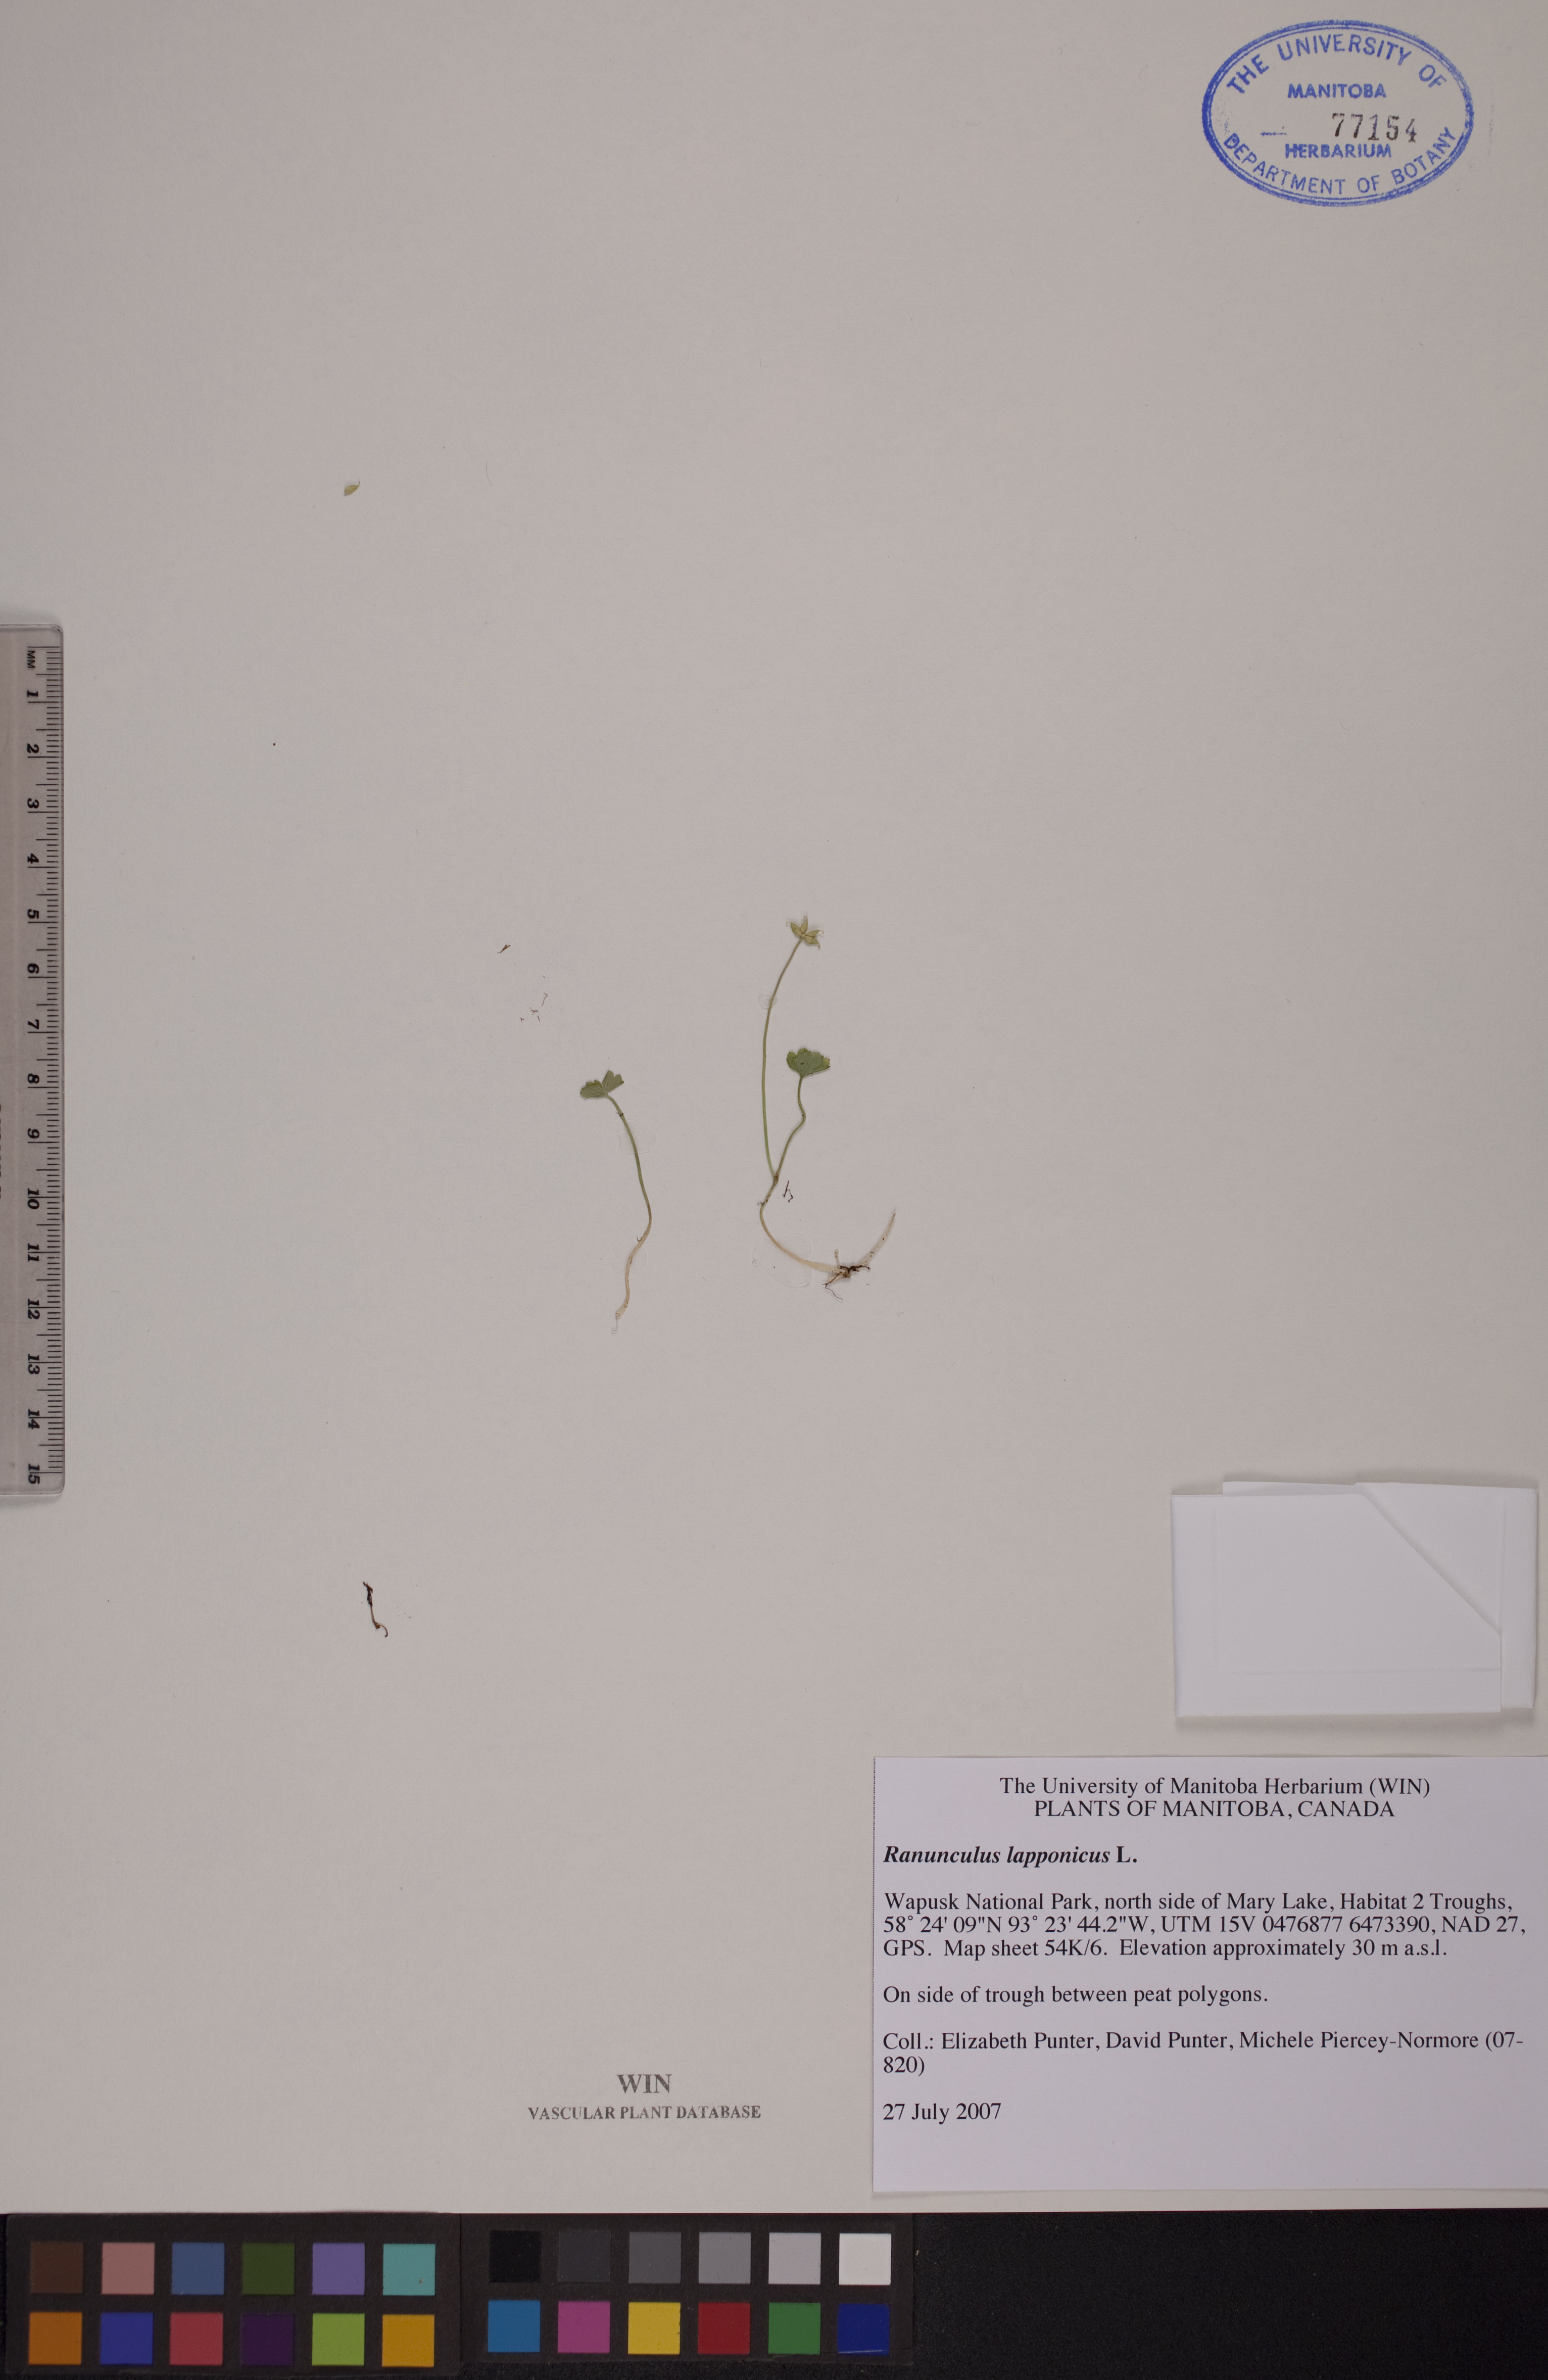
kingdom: Plantae
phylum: Tracheophyta
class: Magnoliopsida
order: Ranunculales
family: Ranunculaceae
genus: Coptidium
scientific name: Coptidium lapponicum
